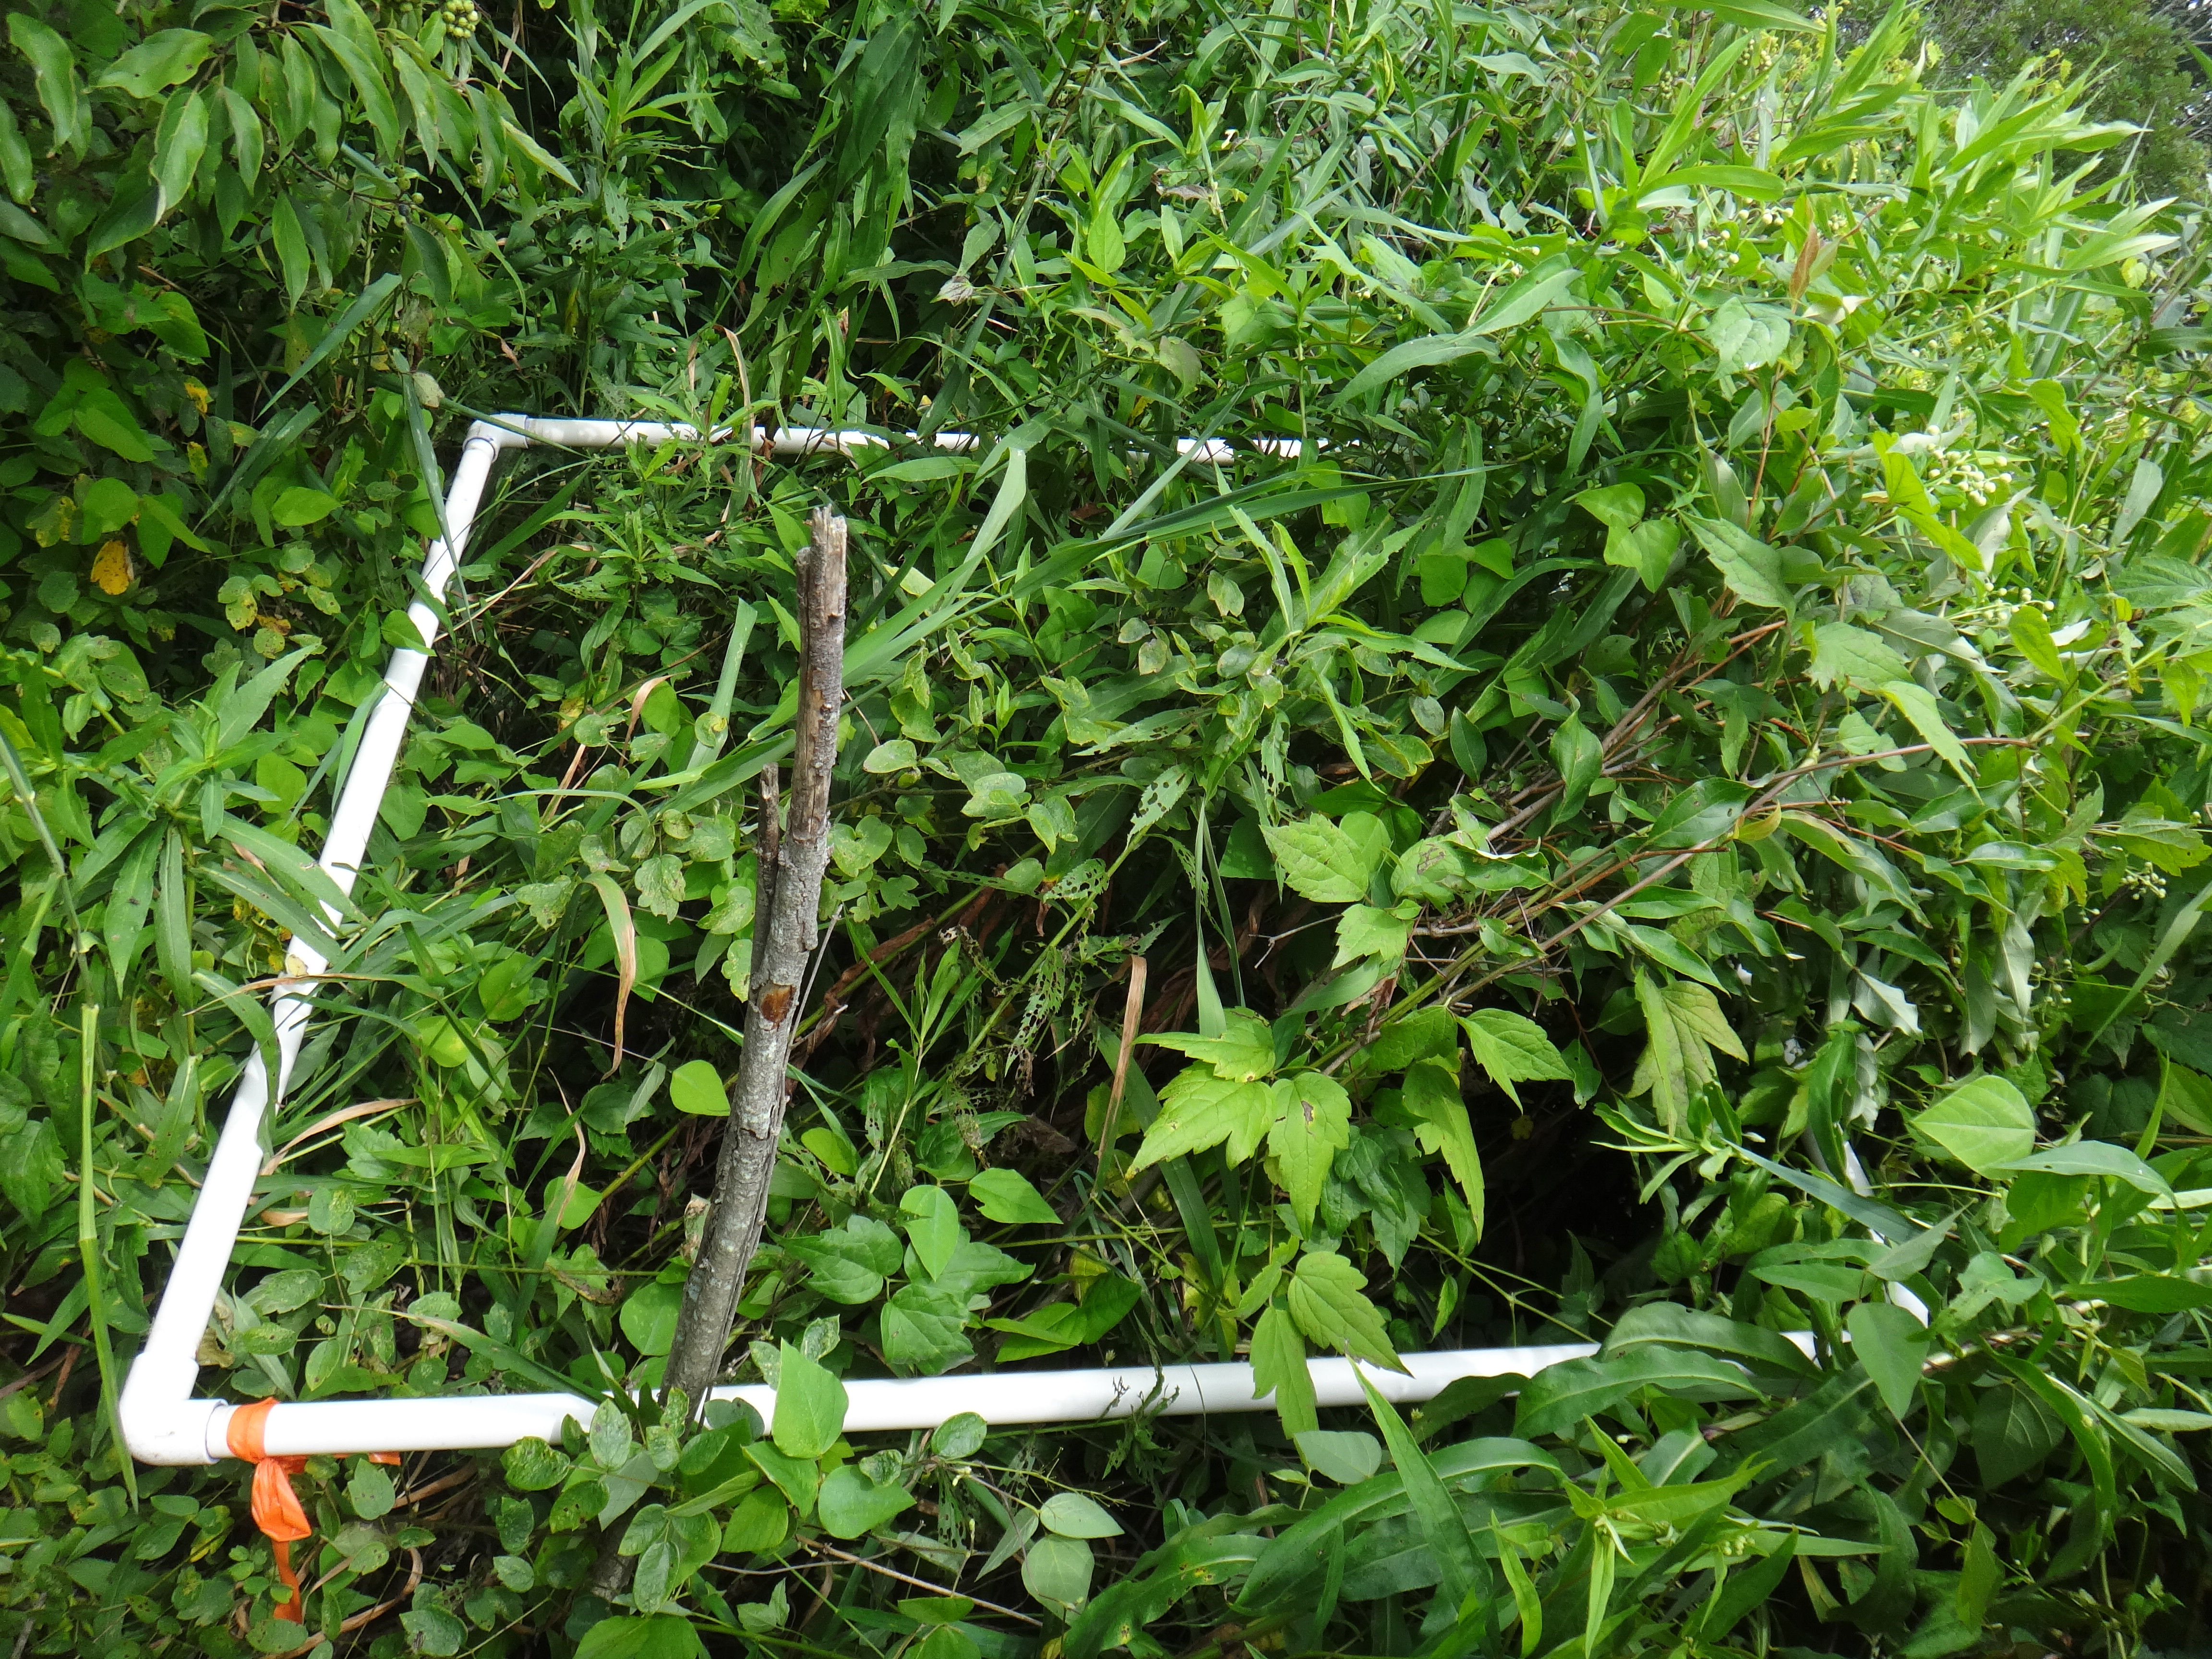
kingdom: Plantae
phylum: Tracheophyta
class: Magnoliopsida
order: Asterales
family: Asteraceae
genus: Doellingeria
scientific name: Doellingeria umbellata
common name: Flat-top white aster
